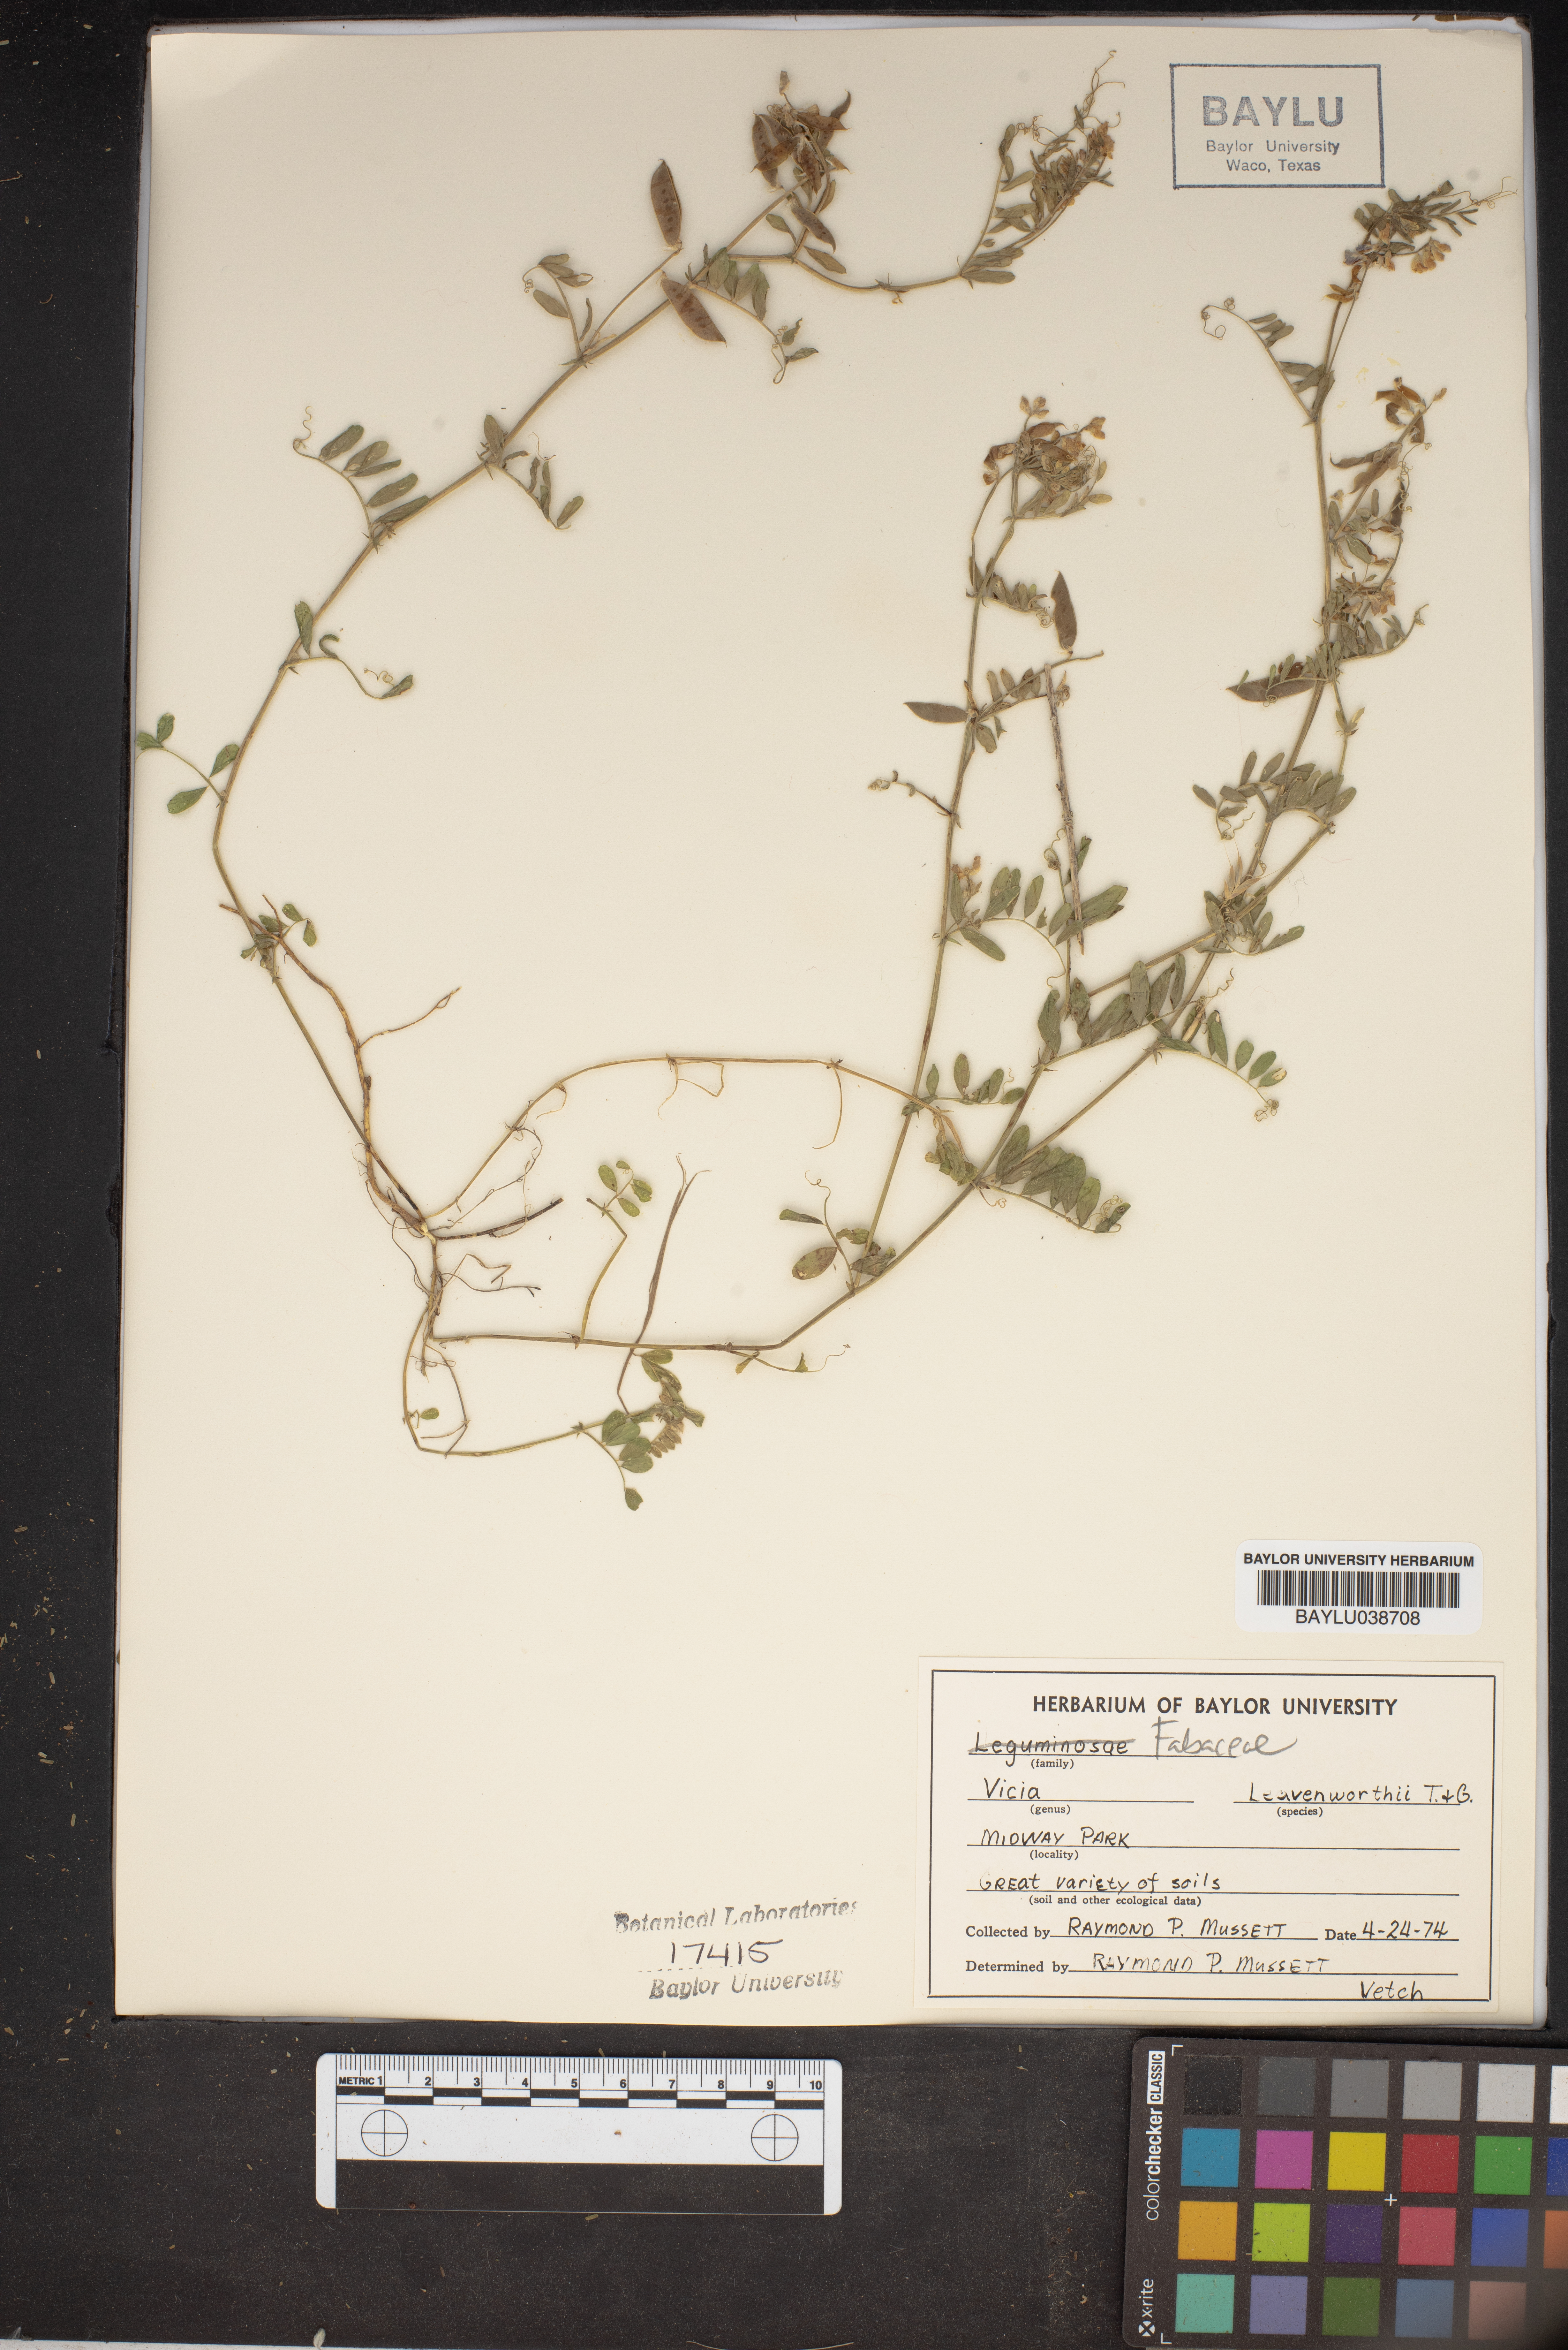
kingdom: Plantae
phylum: Tracheophyta
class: Magnoliopsida
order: Fabales
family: Fabaceae
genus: Vicia
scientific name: Vicia ludoviciana
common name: Louisiana vetch
